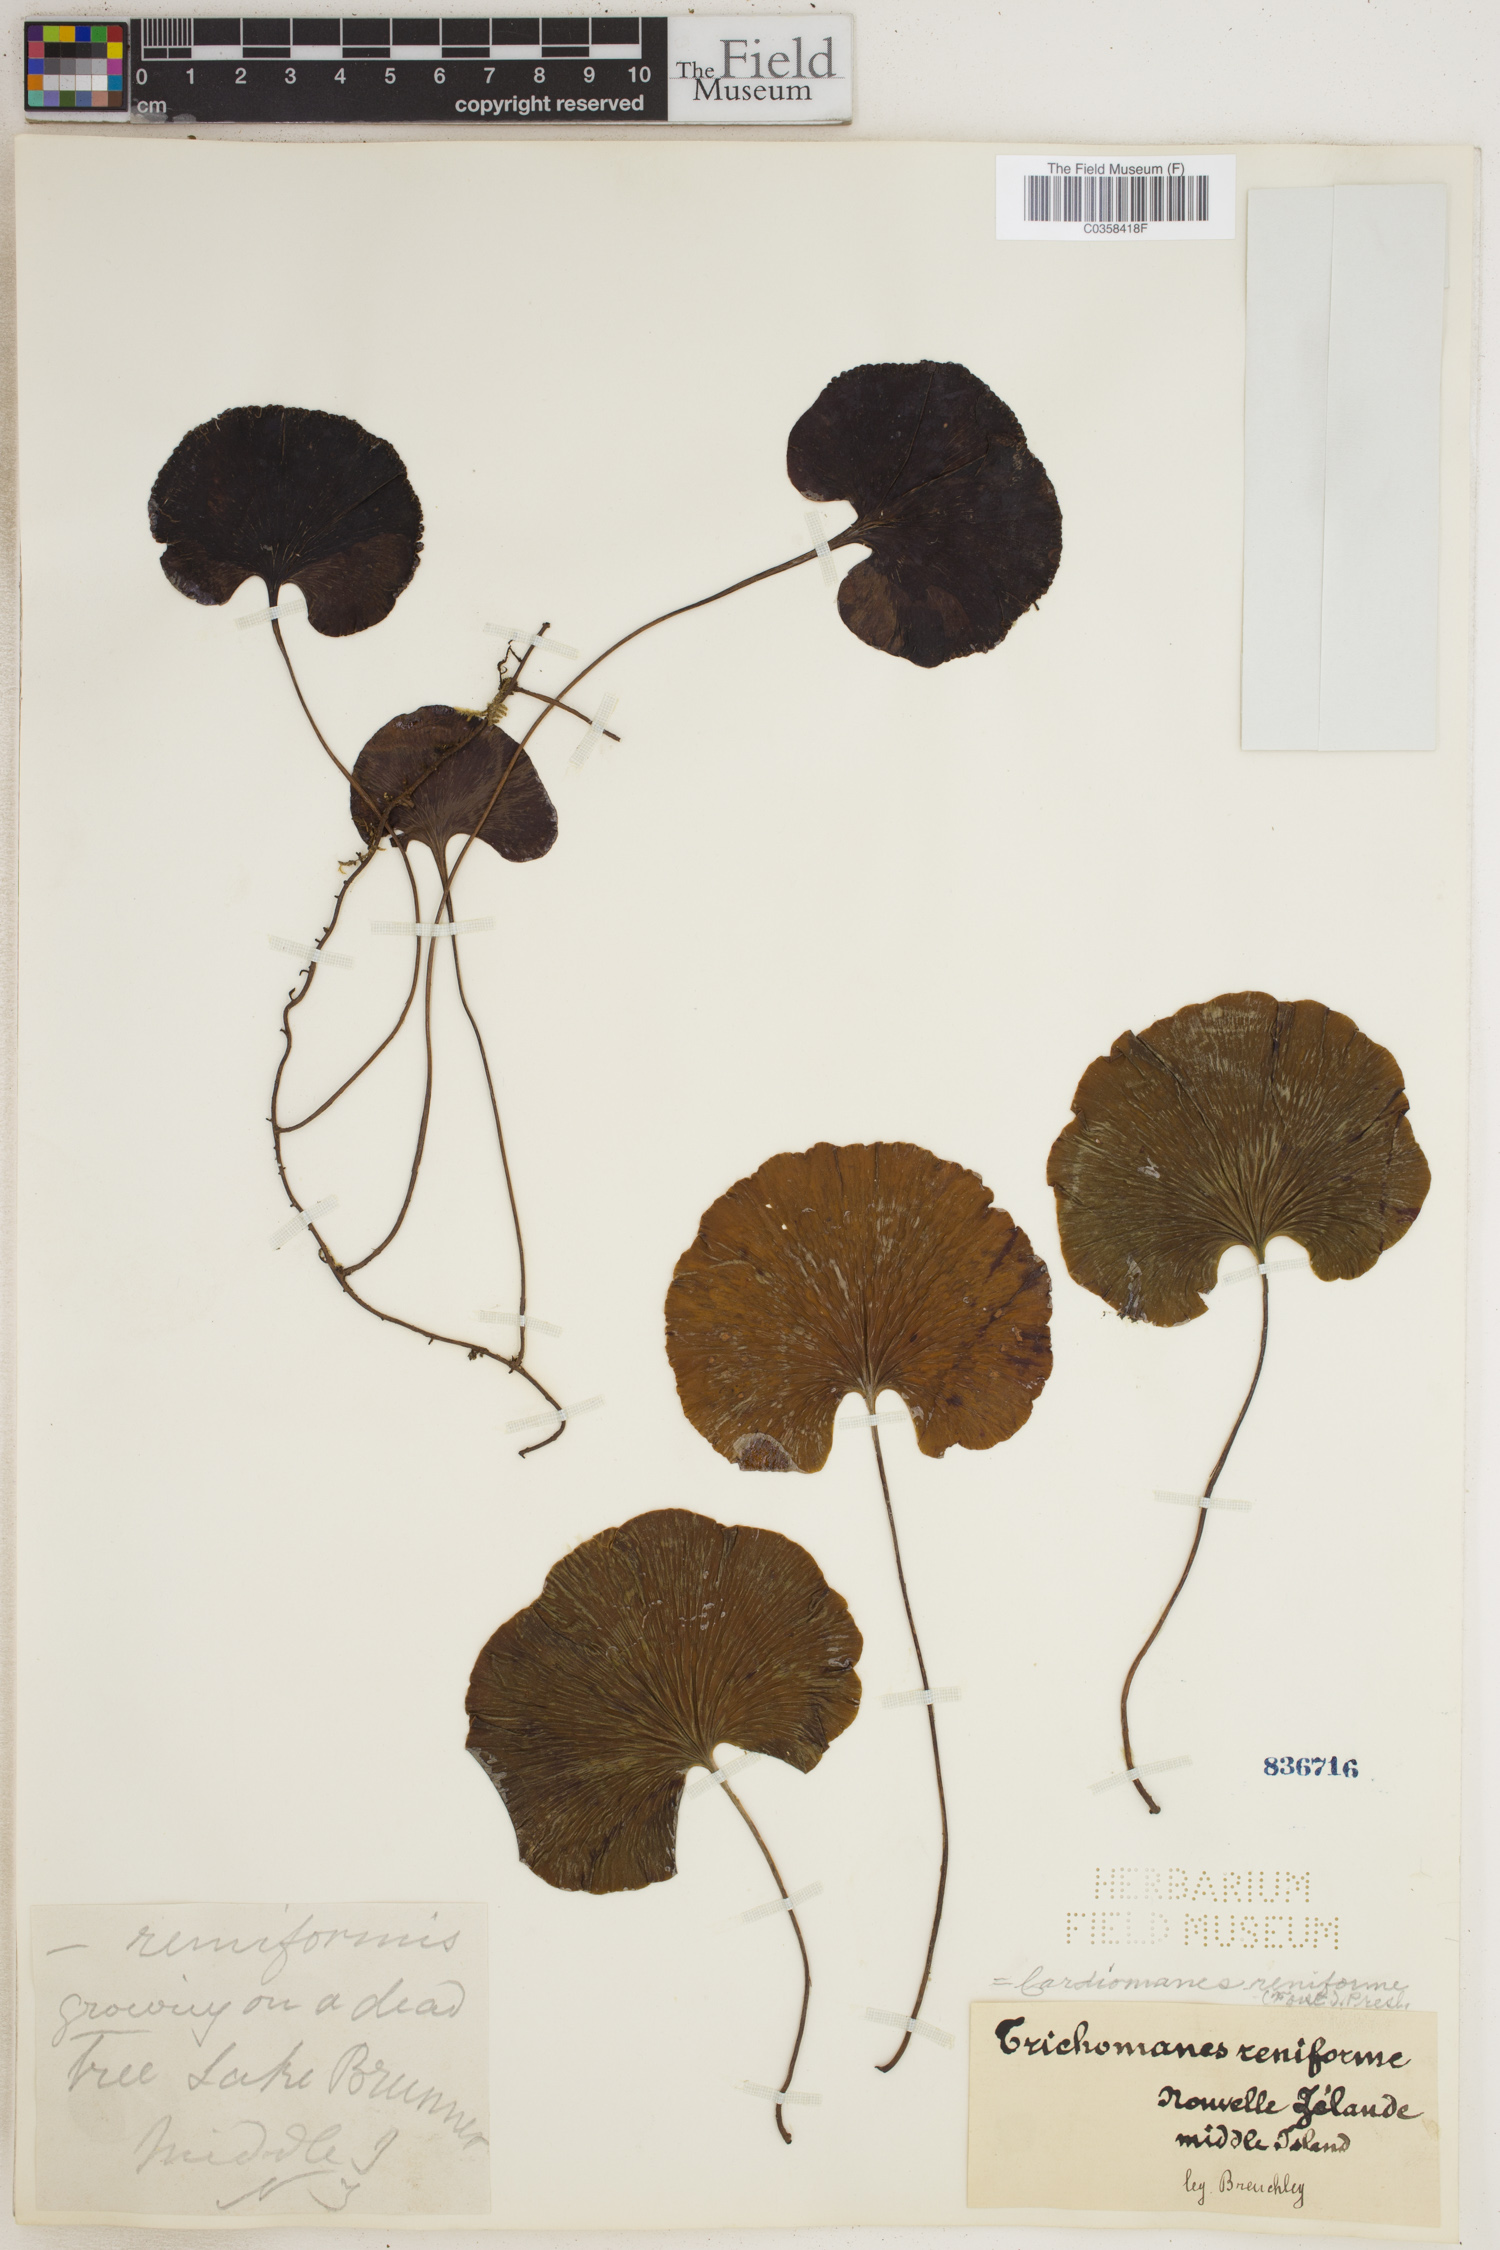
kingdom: Plantae
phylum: Tracheophyta
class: Polypodiopsida
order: Hymenophyllales
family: Hymenophyllaceae
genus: Hymenophyllum
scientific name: Hymenophyllum nephrophyllum
